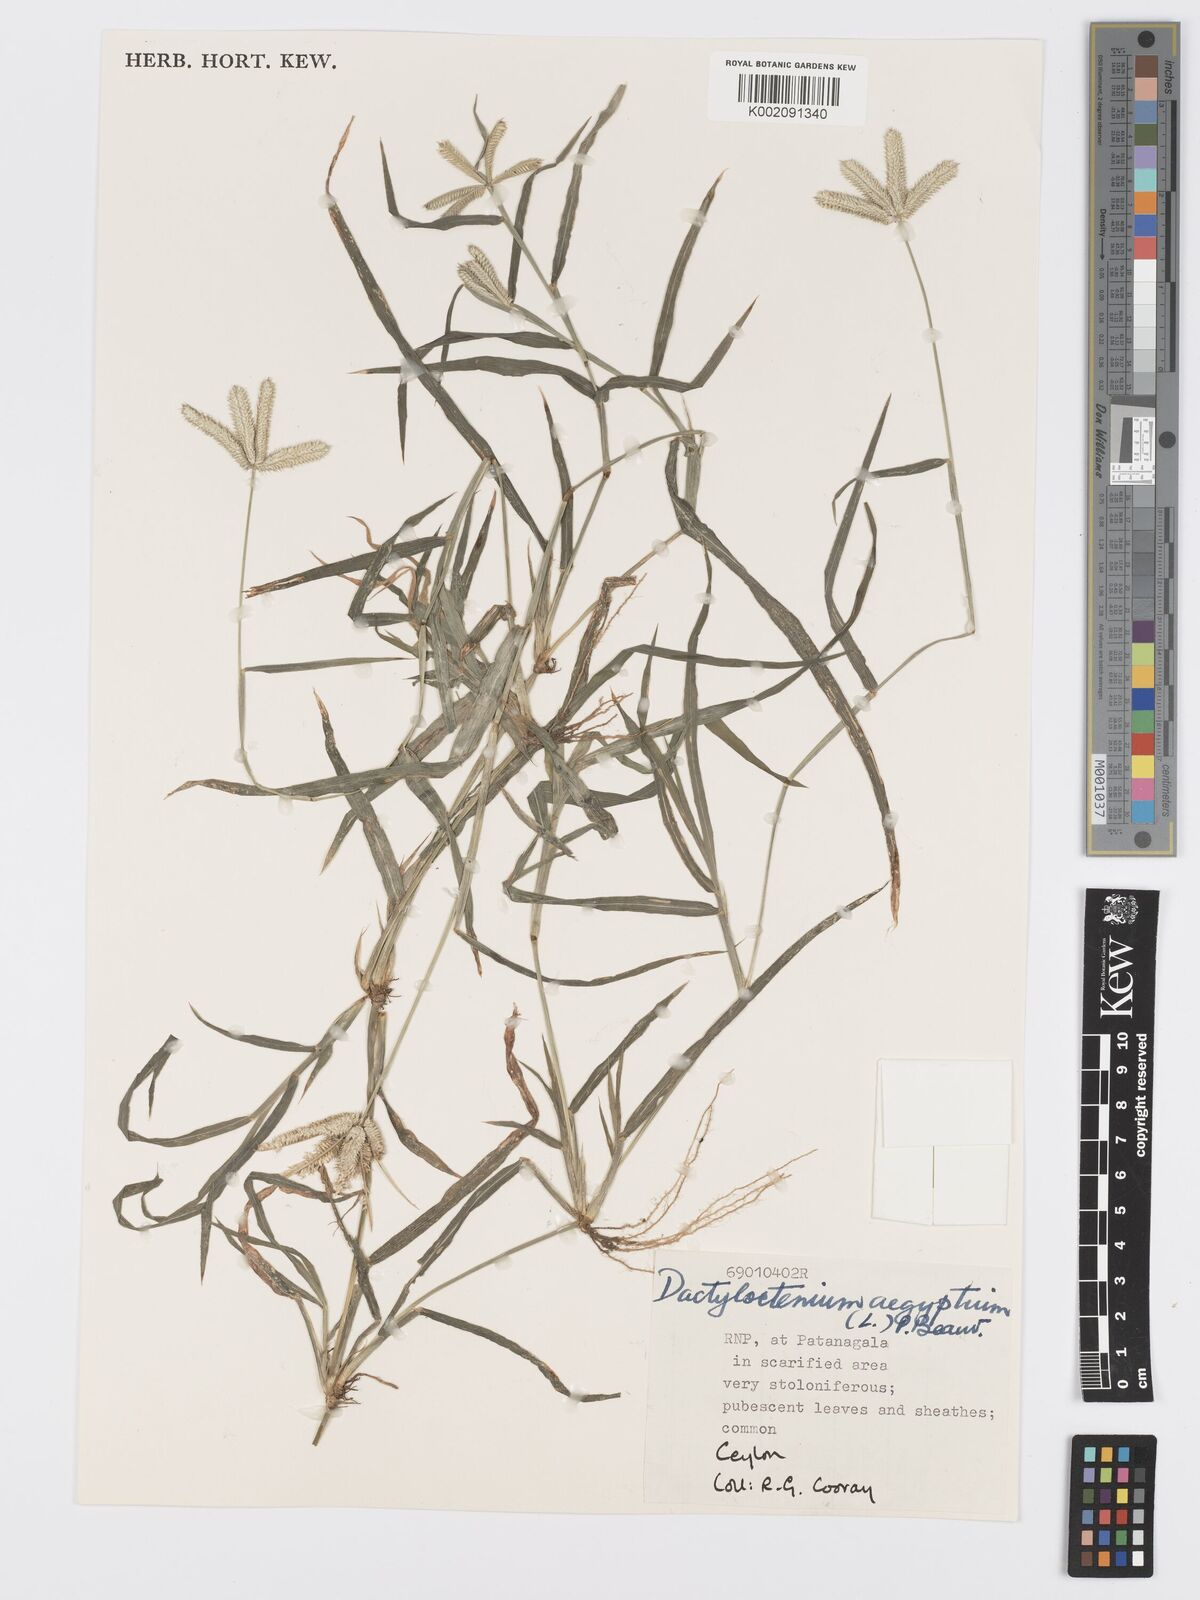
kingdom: Plantae
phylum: Tracheophyta
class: Liliopsida
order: Poales
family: Poaceae
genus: Dactyloctenium
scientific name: Dactyloctenium aegyptium
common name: Egyptian grass
